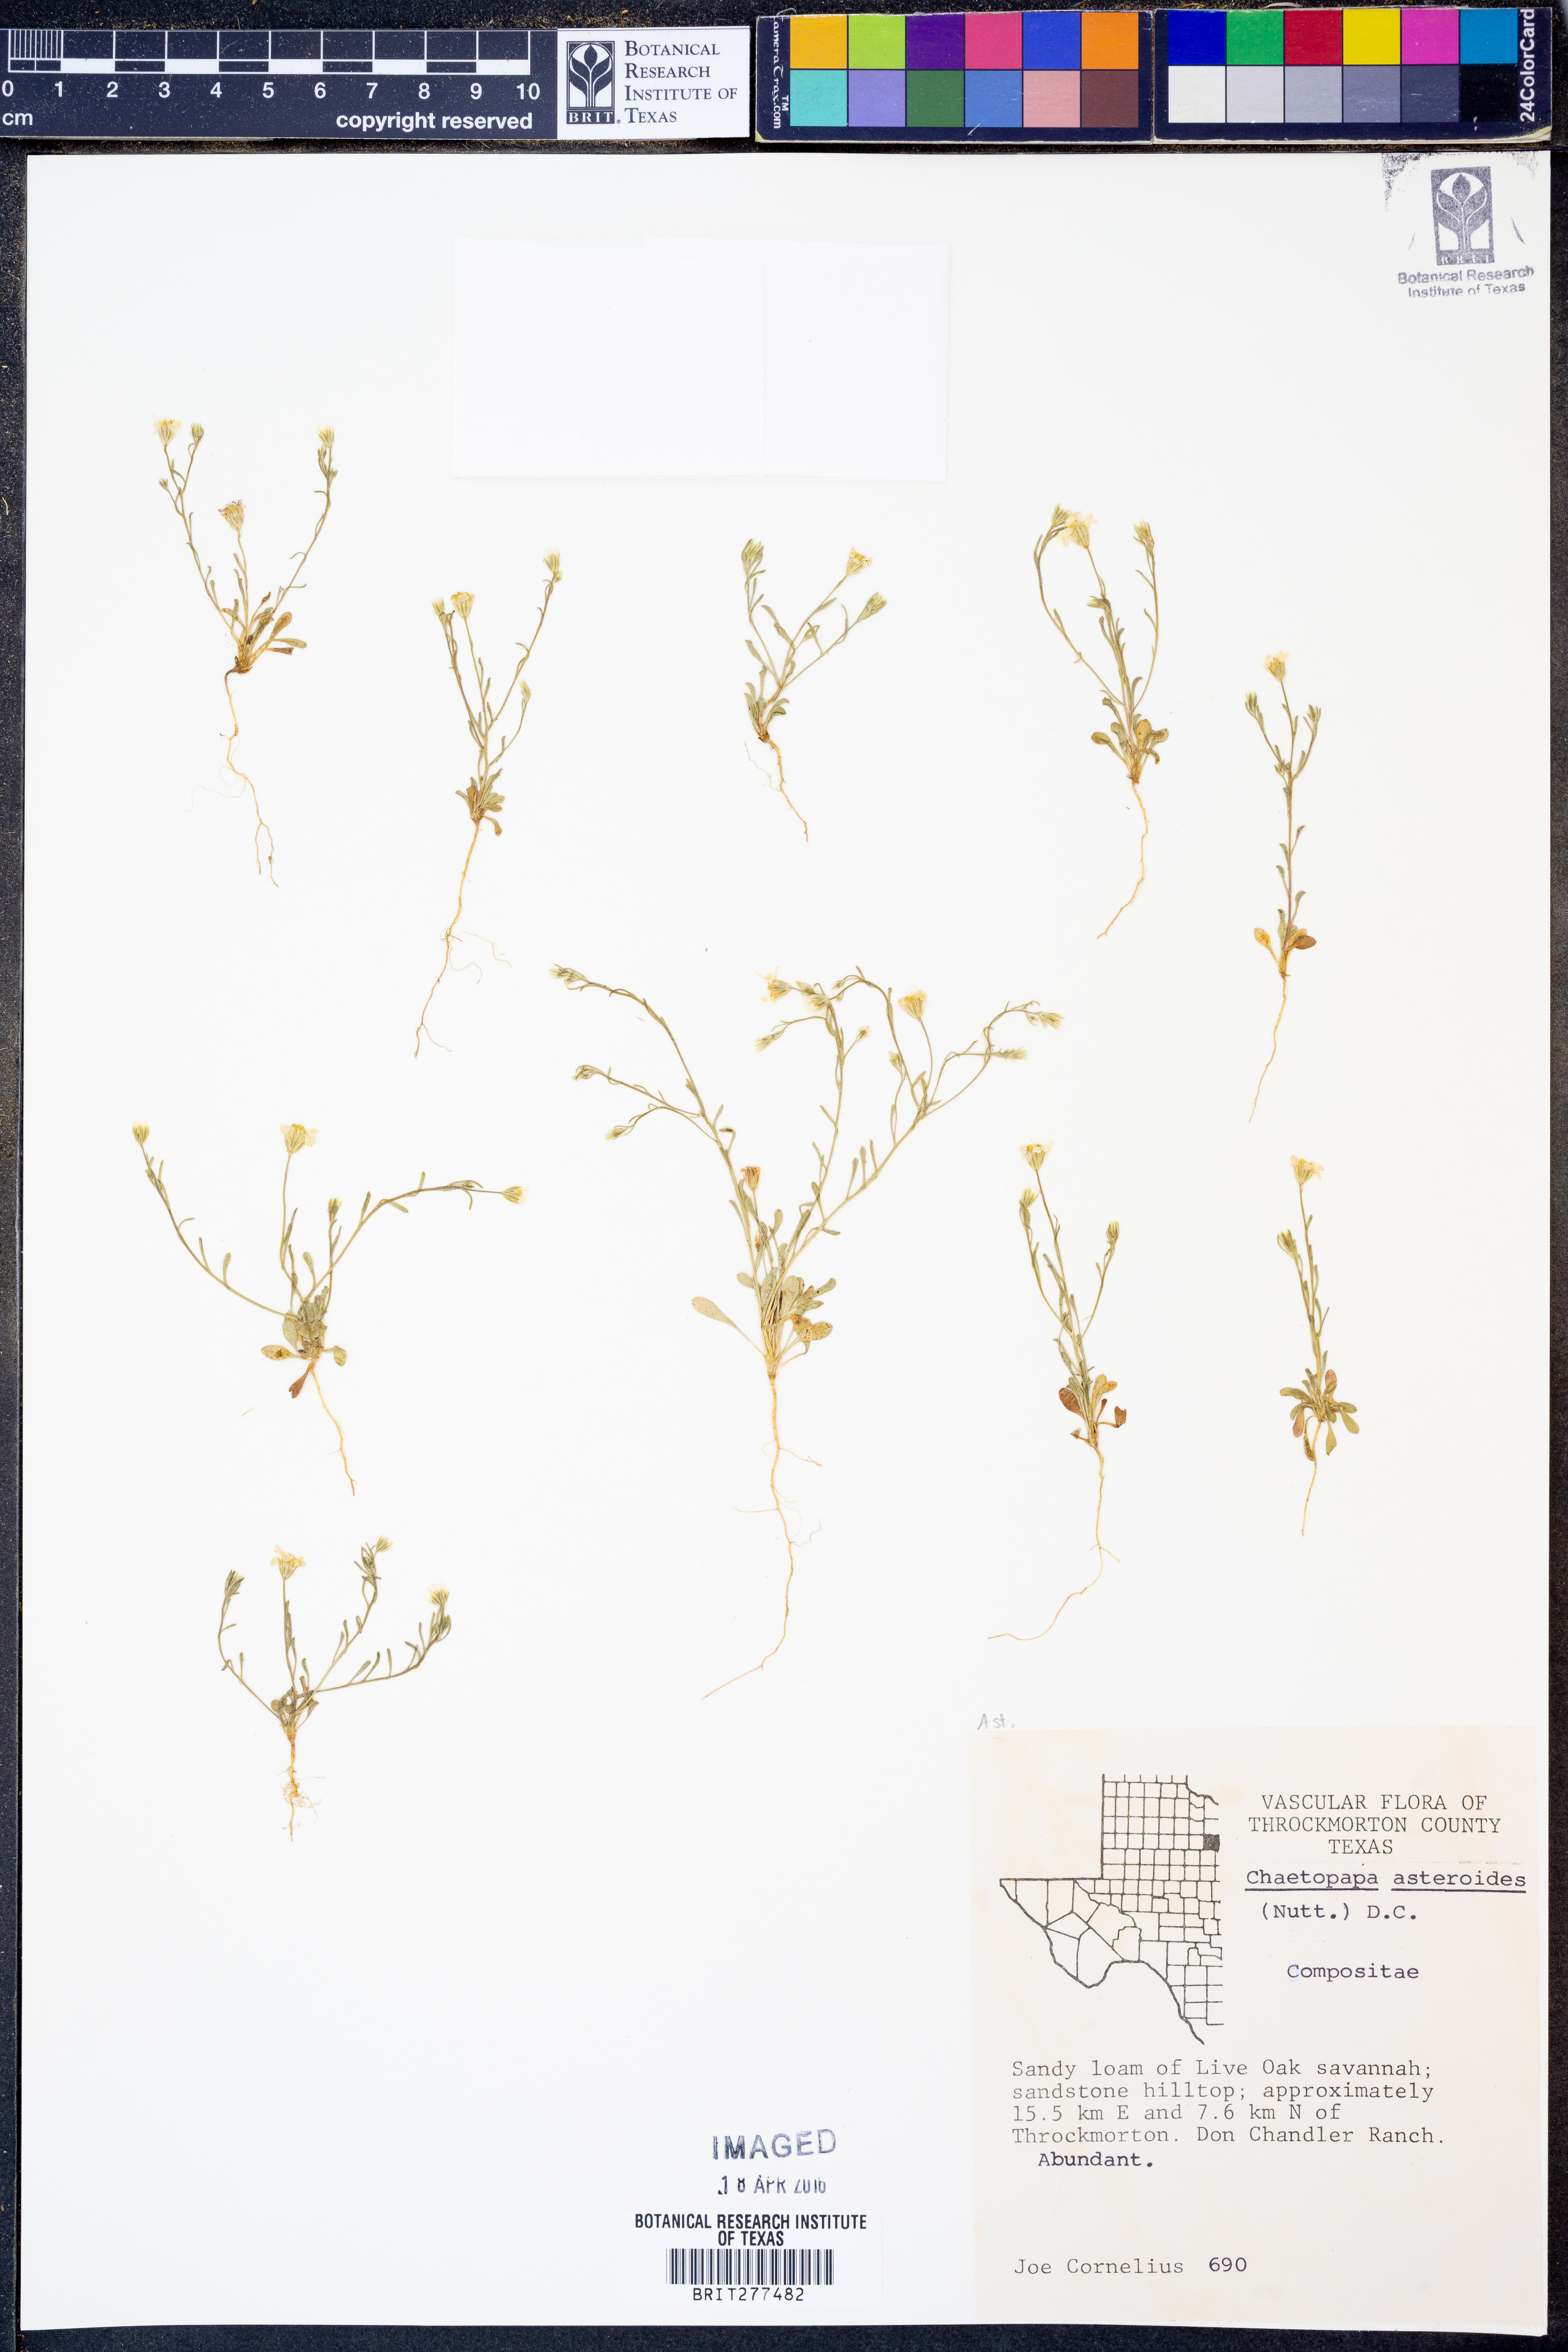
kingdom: Plantae
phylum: Tracheophyta
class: Magnoliopsida
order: Asterales
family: Asteraceae
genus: Chaetopappa
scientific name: Chaetopappa asteroides
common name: Tiny lazy daisy
